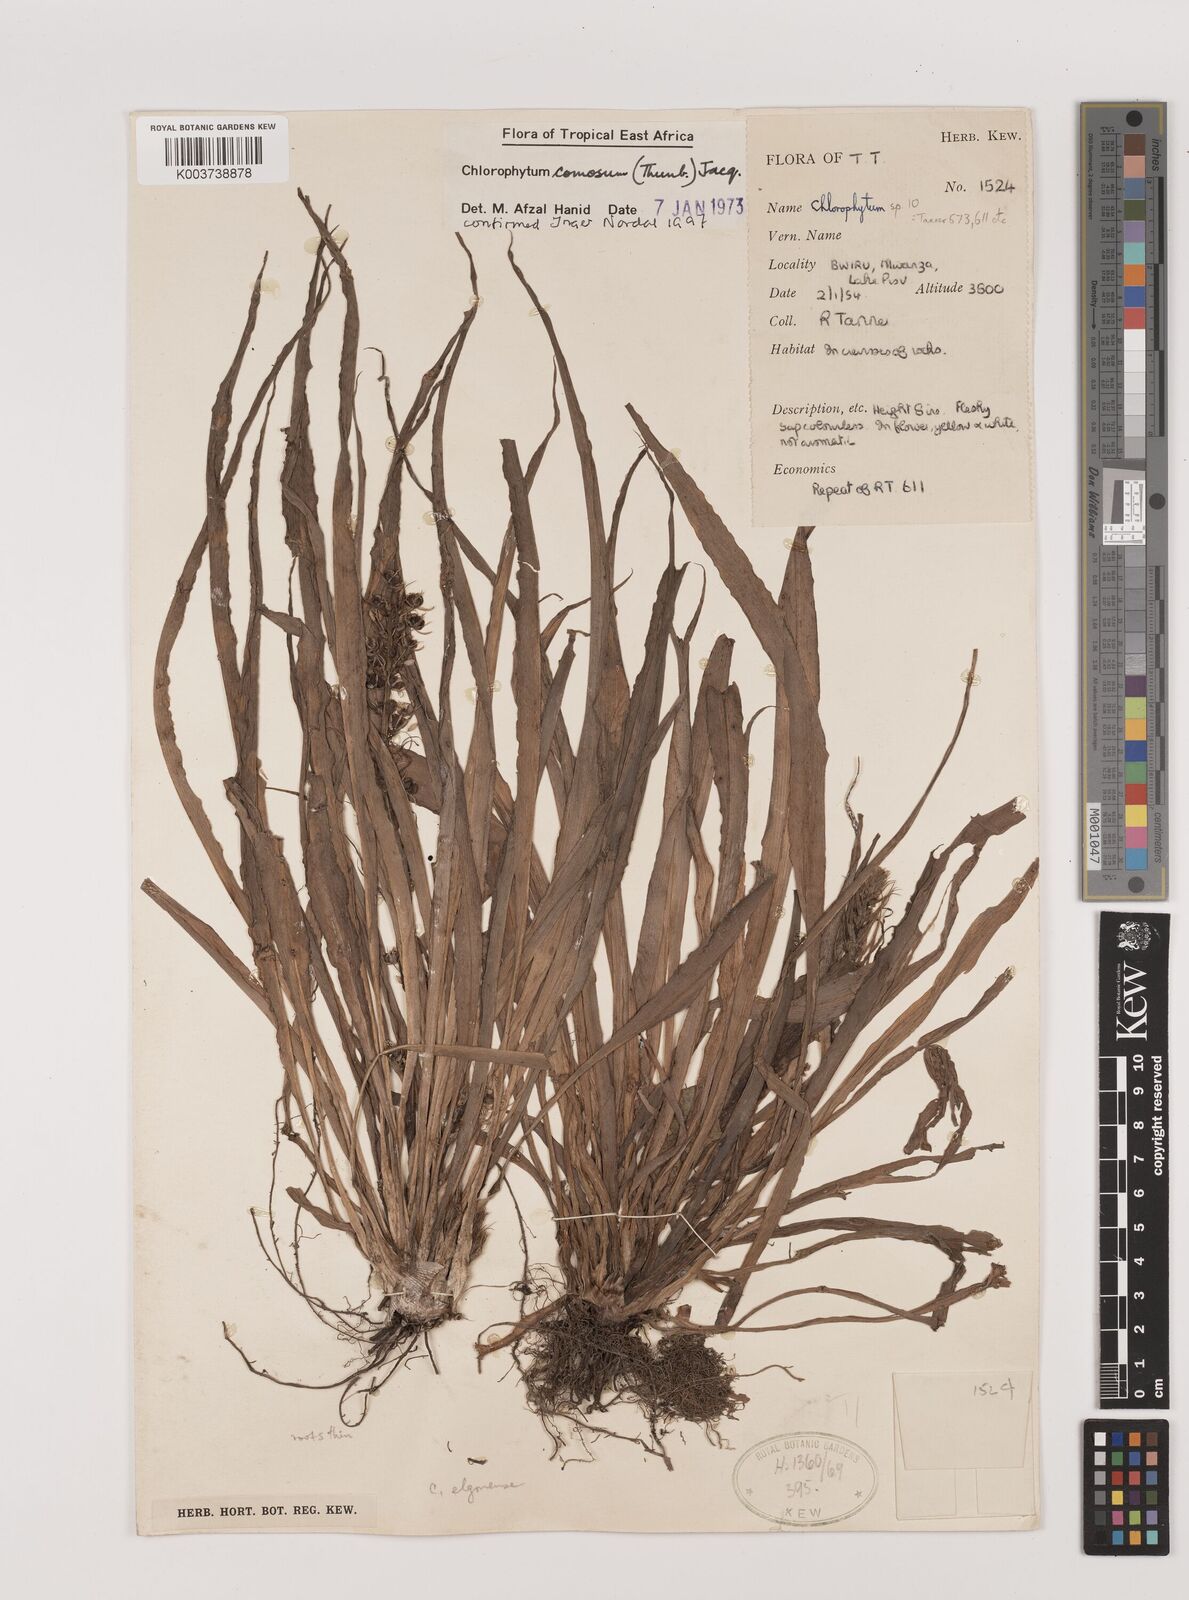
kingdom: Plantae
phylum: Tracheophyta
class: Liliopsida
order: Asparagales
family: Asparagaceae
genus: Chlorophytum
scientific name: Chlorophytum comosum
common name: Spider plant
